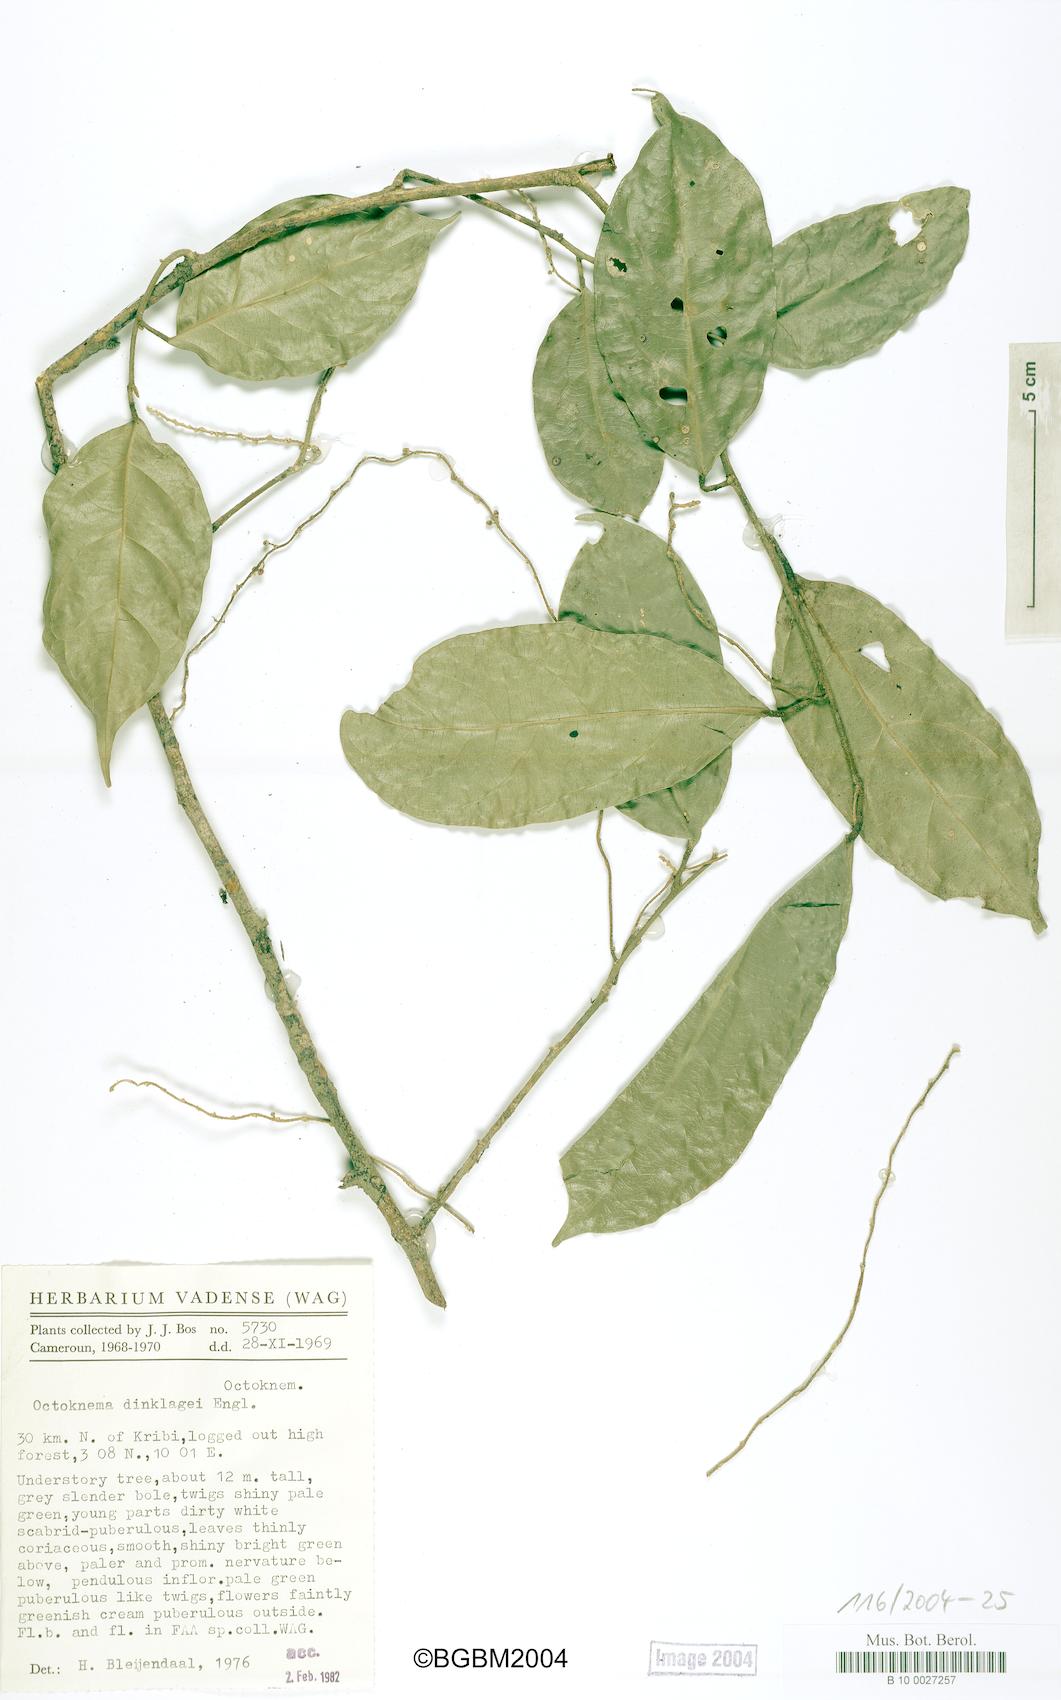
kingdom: Plantae
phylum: Tracheophyta
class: Magnoliopsida
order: Santalales
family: Octoknemaceae
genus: Octoknema
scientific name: Octoknema dinklagei
